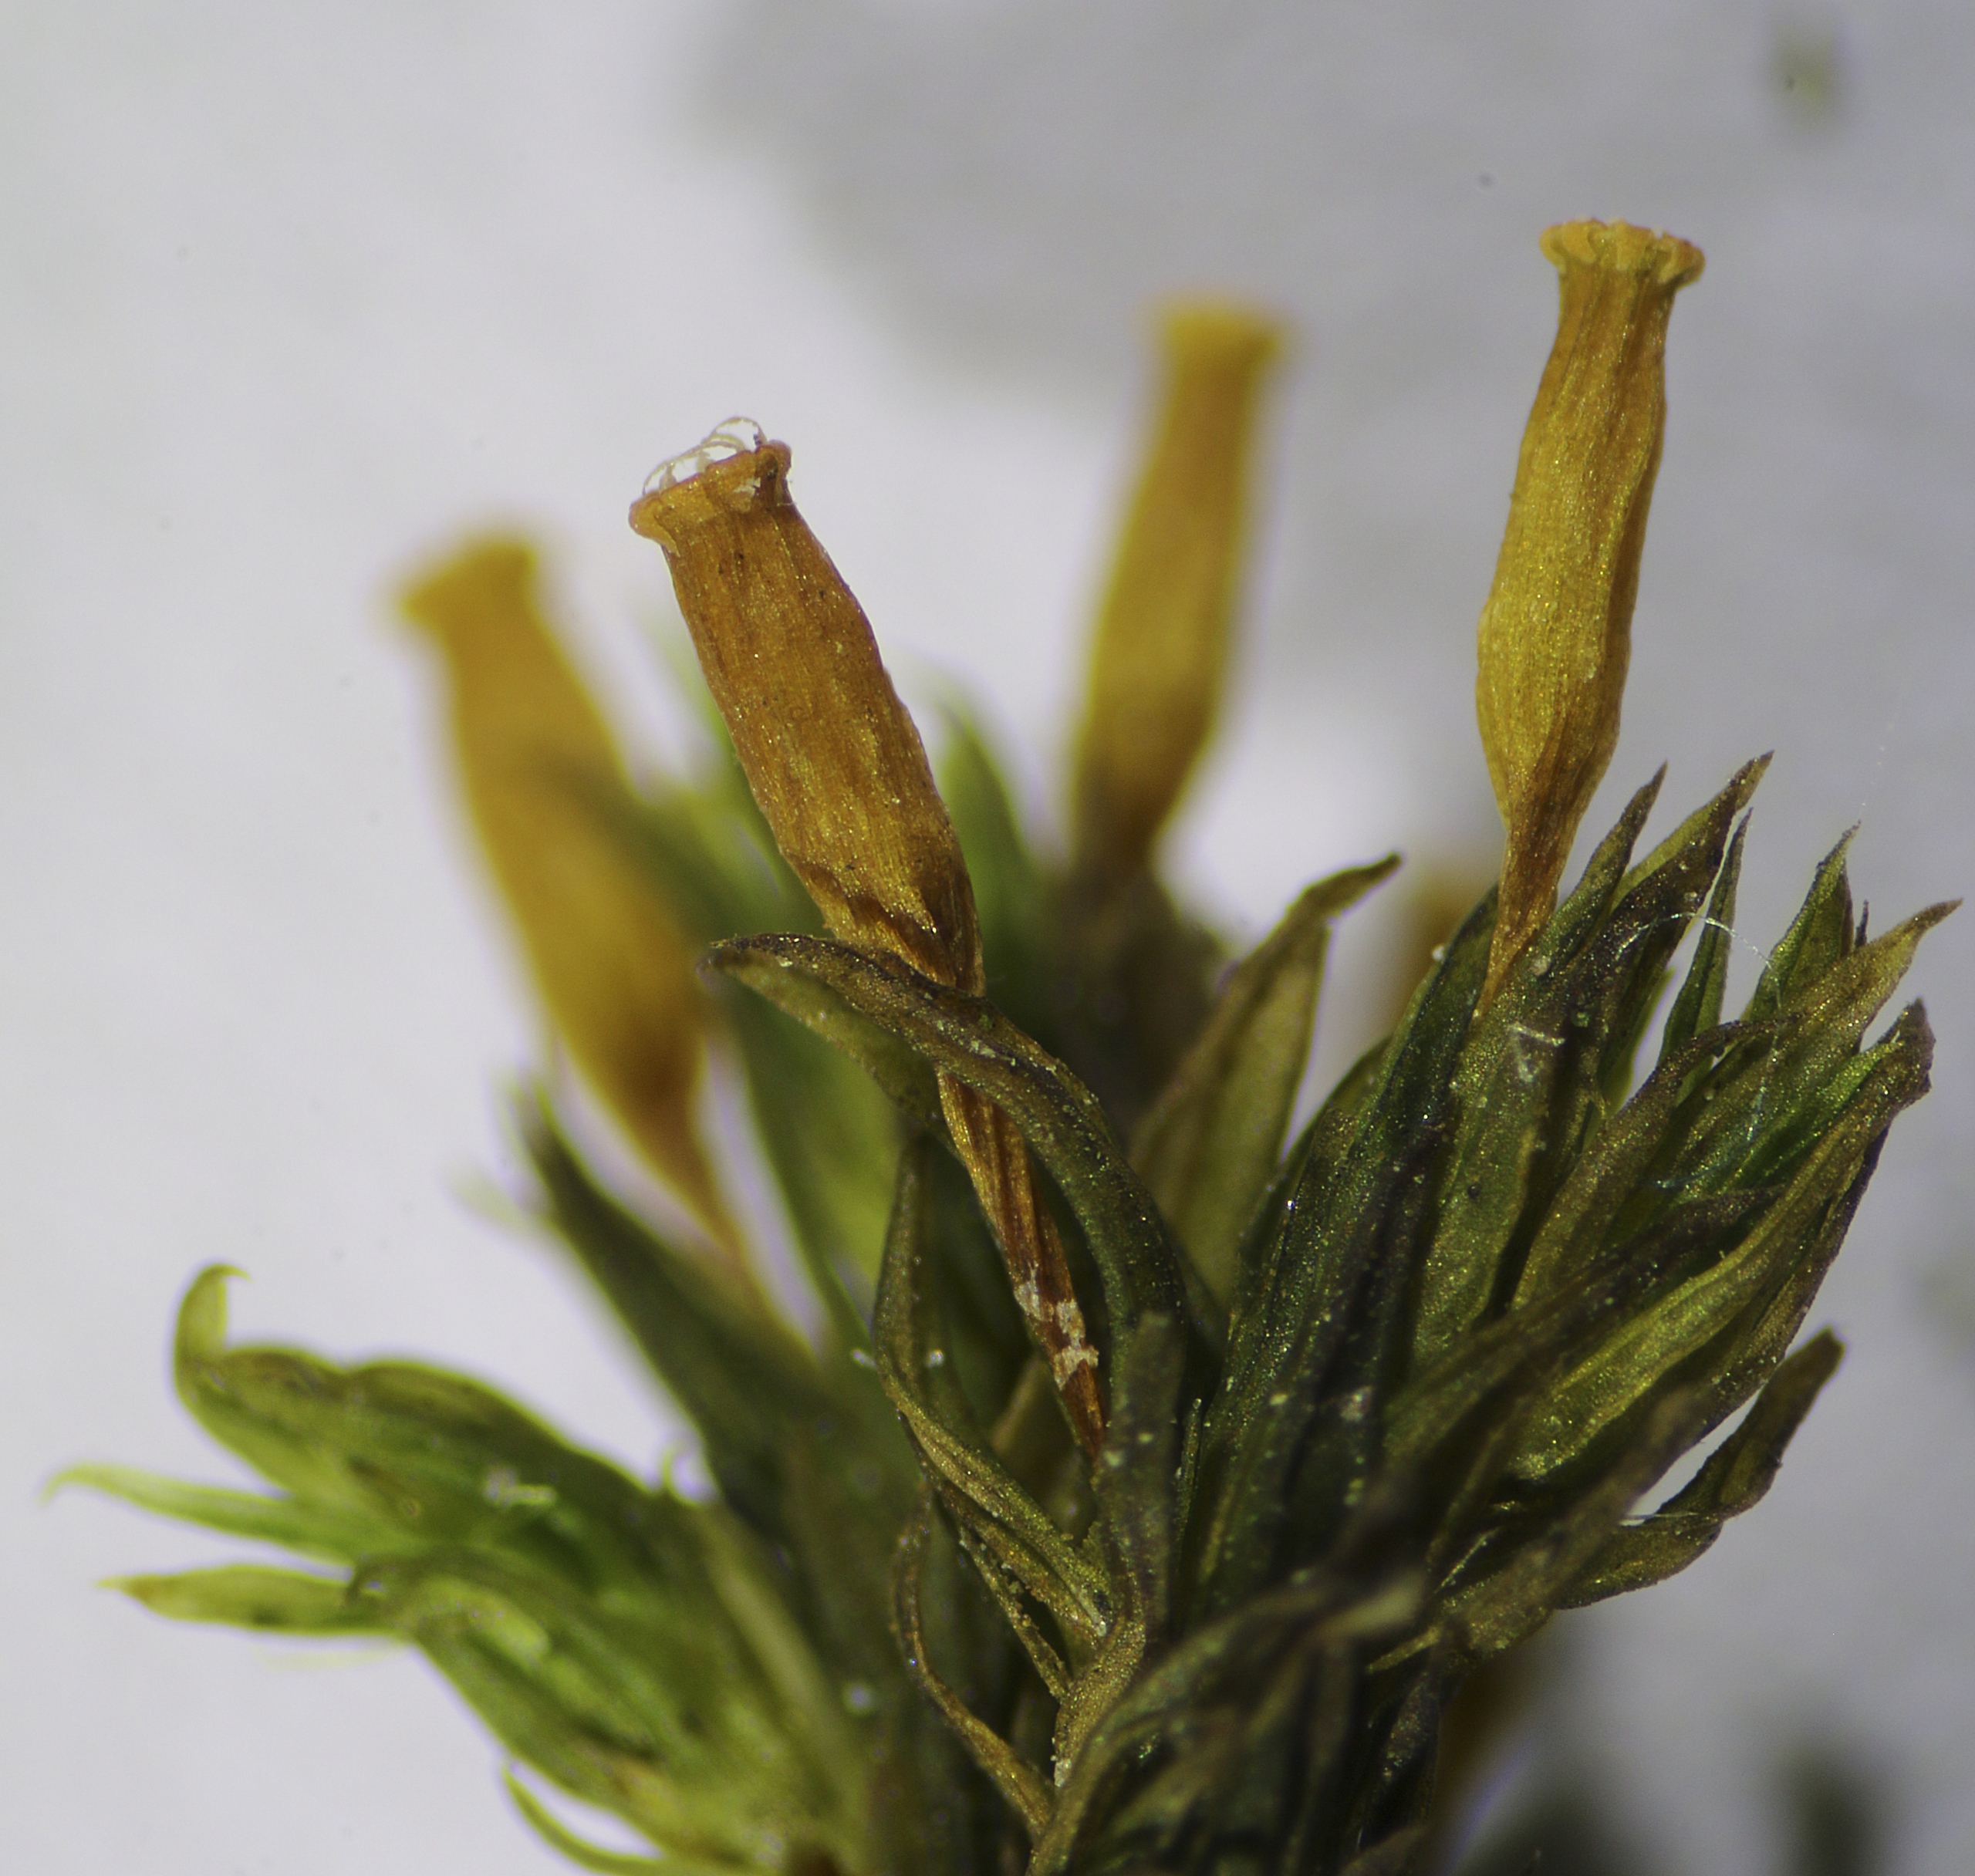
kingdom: Plantae
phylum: Bryophyta
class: Bryopsida
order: Orthotrichales
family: Orthotrichaceae
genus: Lewinskya
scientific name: Lewinskya speciosa
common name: Kortstribet furehætte
